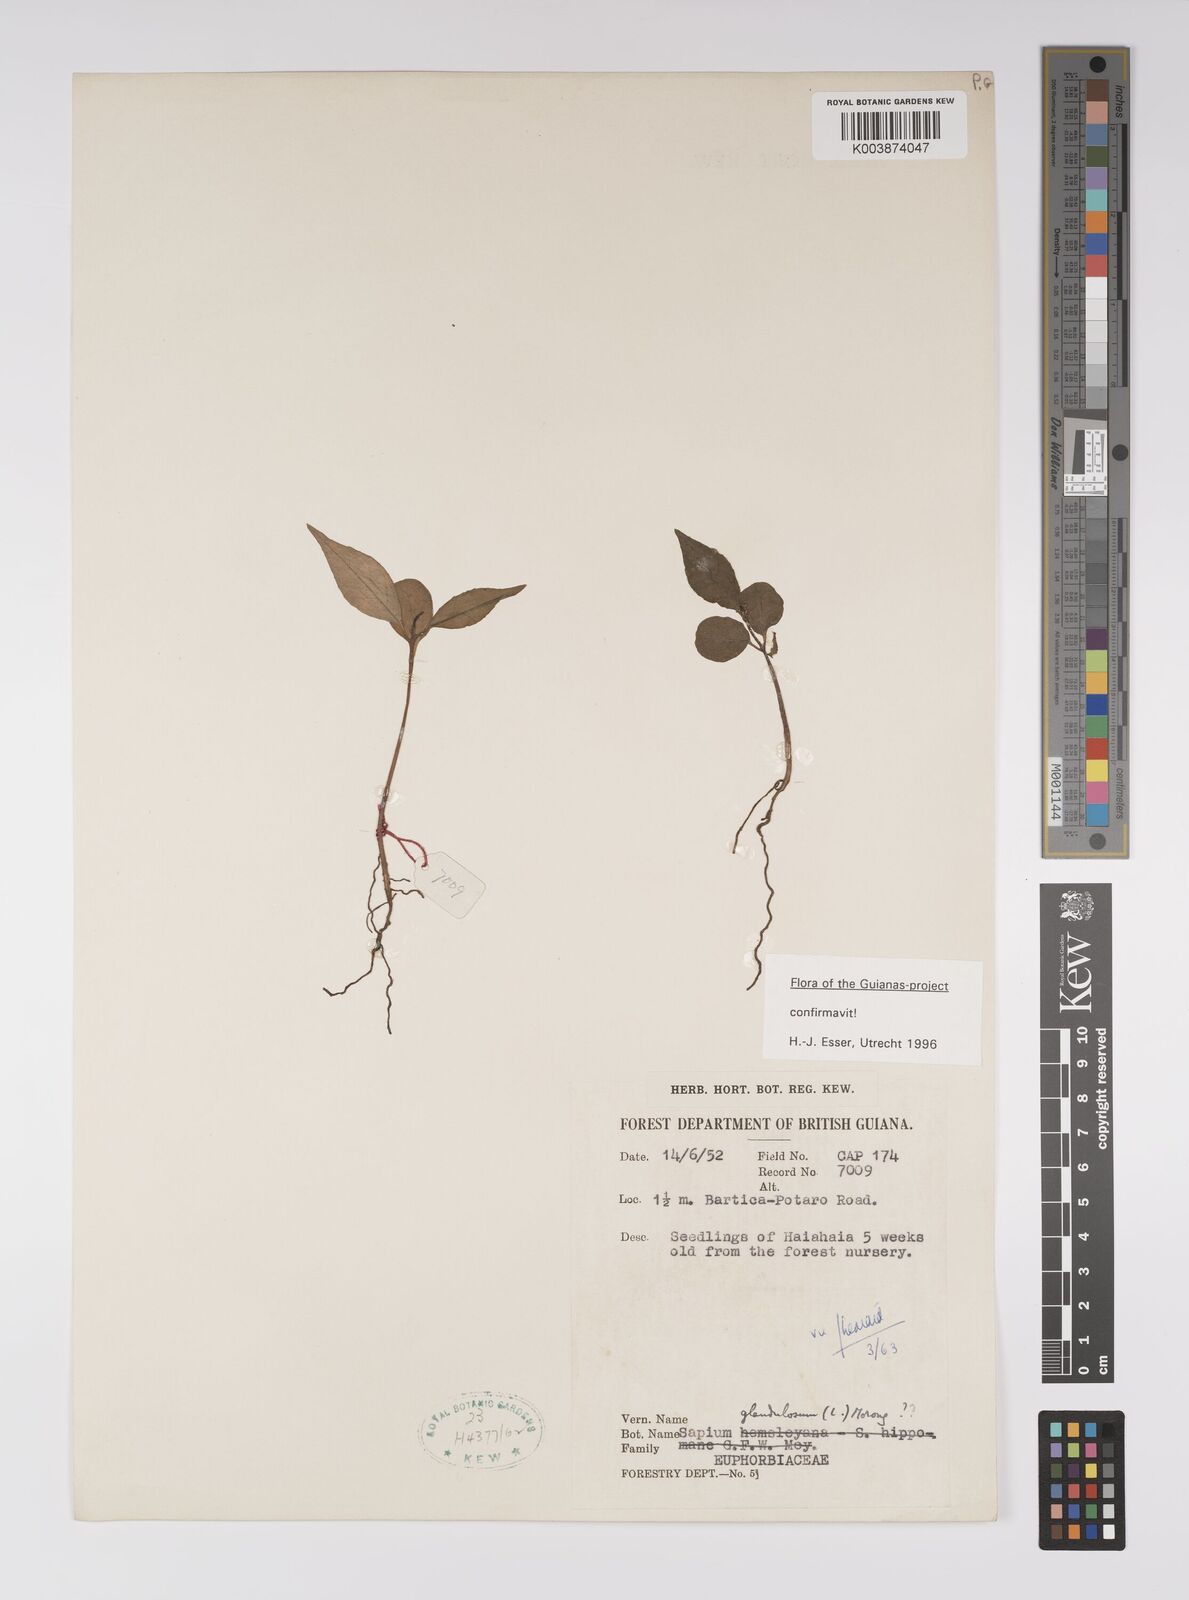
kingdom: Plantae
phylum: Tracheophyta
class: Magnoliopsida
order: Malpighiales
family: Euphorbiaceae
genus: Sapium
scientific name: Sapium glandulosum
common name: Milktree
